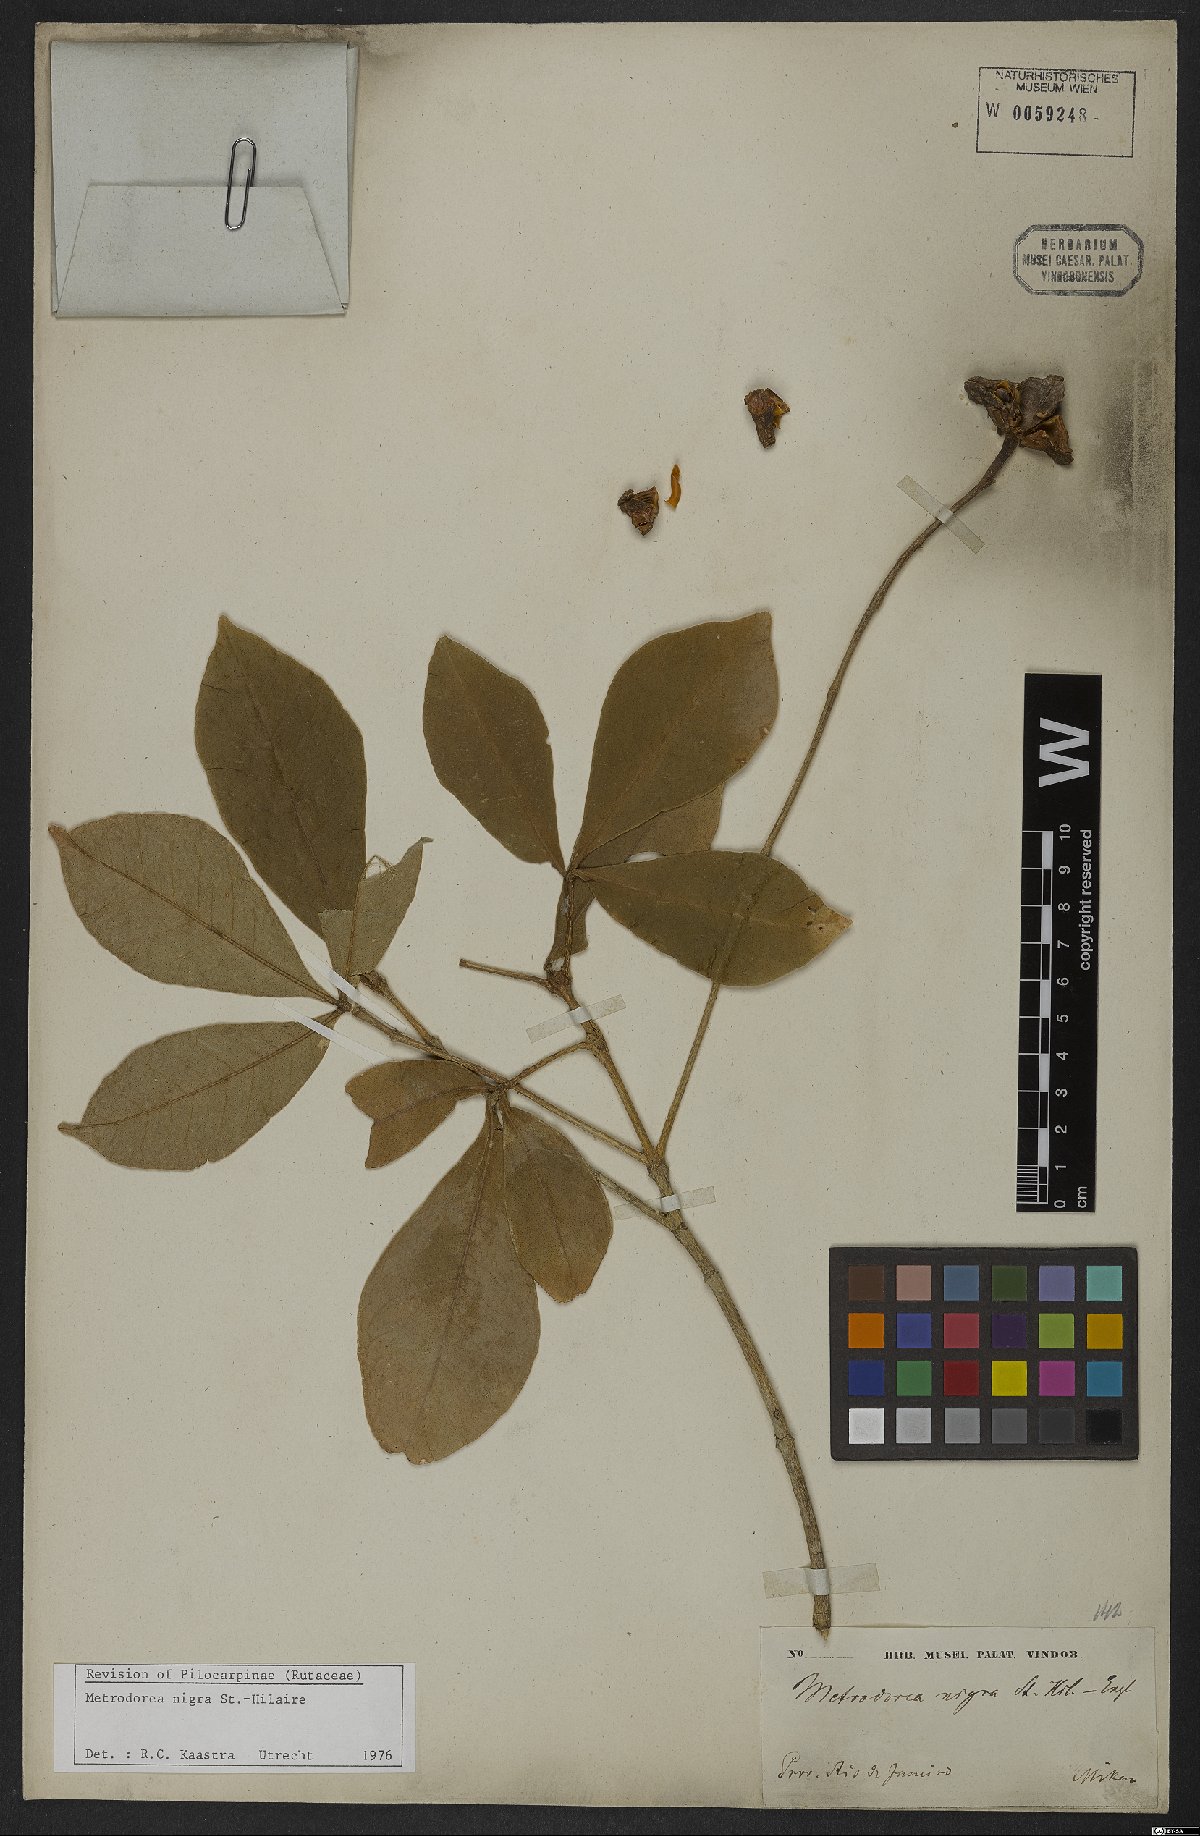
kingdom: Plantae
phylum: Tracheophyta
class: Magnoliopsida
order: Sapindales
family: Rutaceae
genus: Metrodorea
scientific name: Metrodorea nigra
